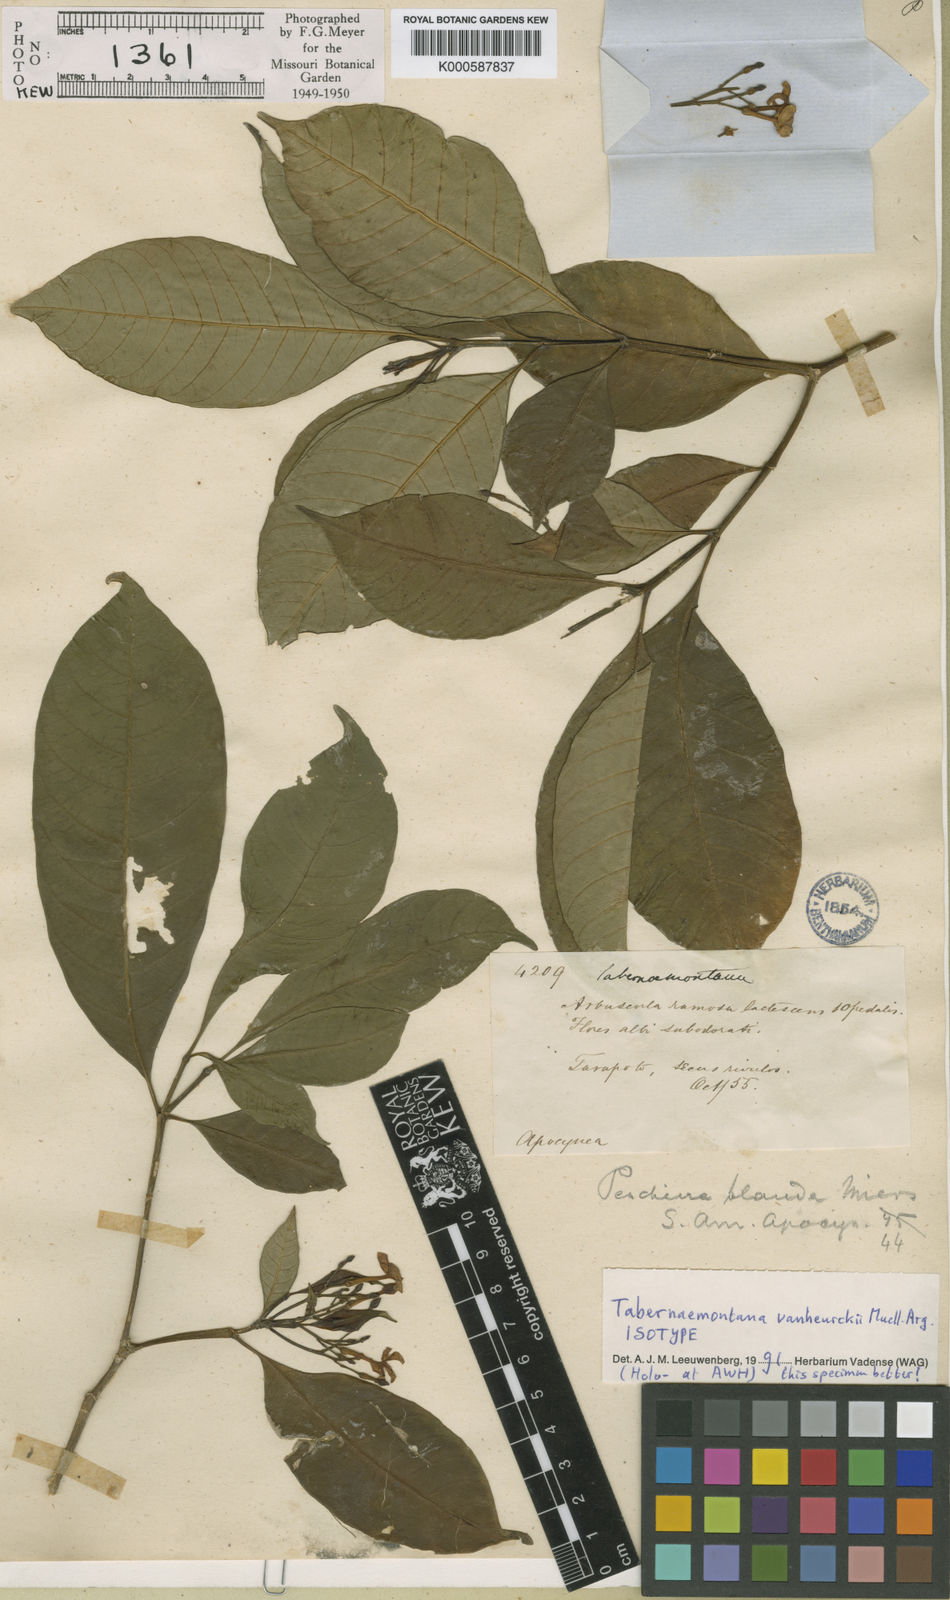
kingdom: Plantae
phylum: Tracheophyta
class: Magnoliopsida
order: Gentianales
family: Apocynaceae
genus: Tabernaemontana
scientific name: Tabernaemontana
